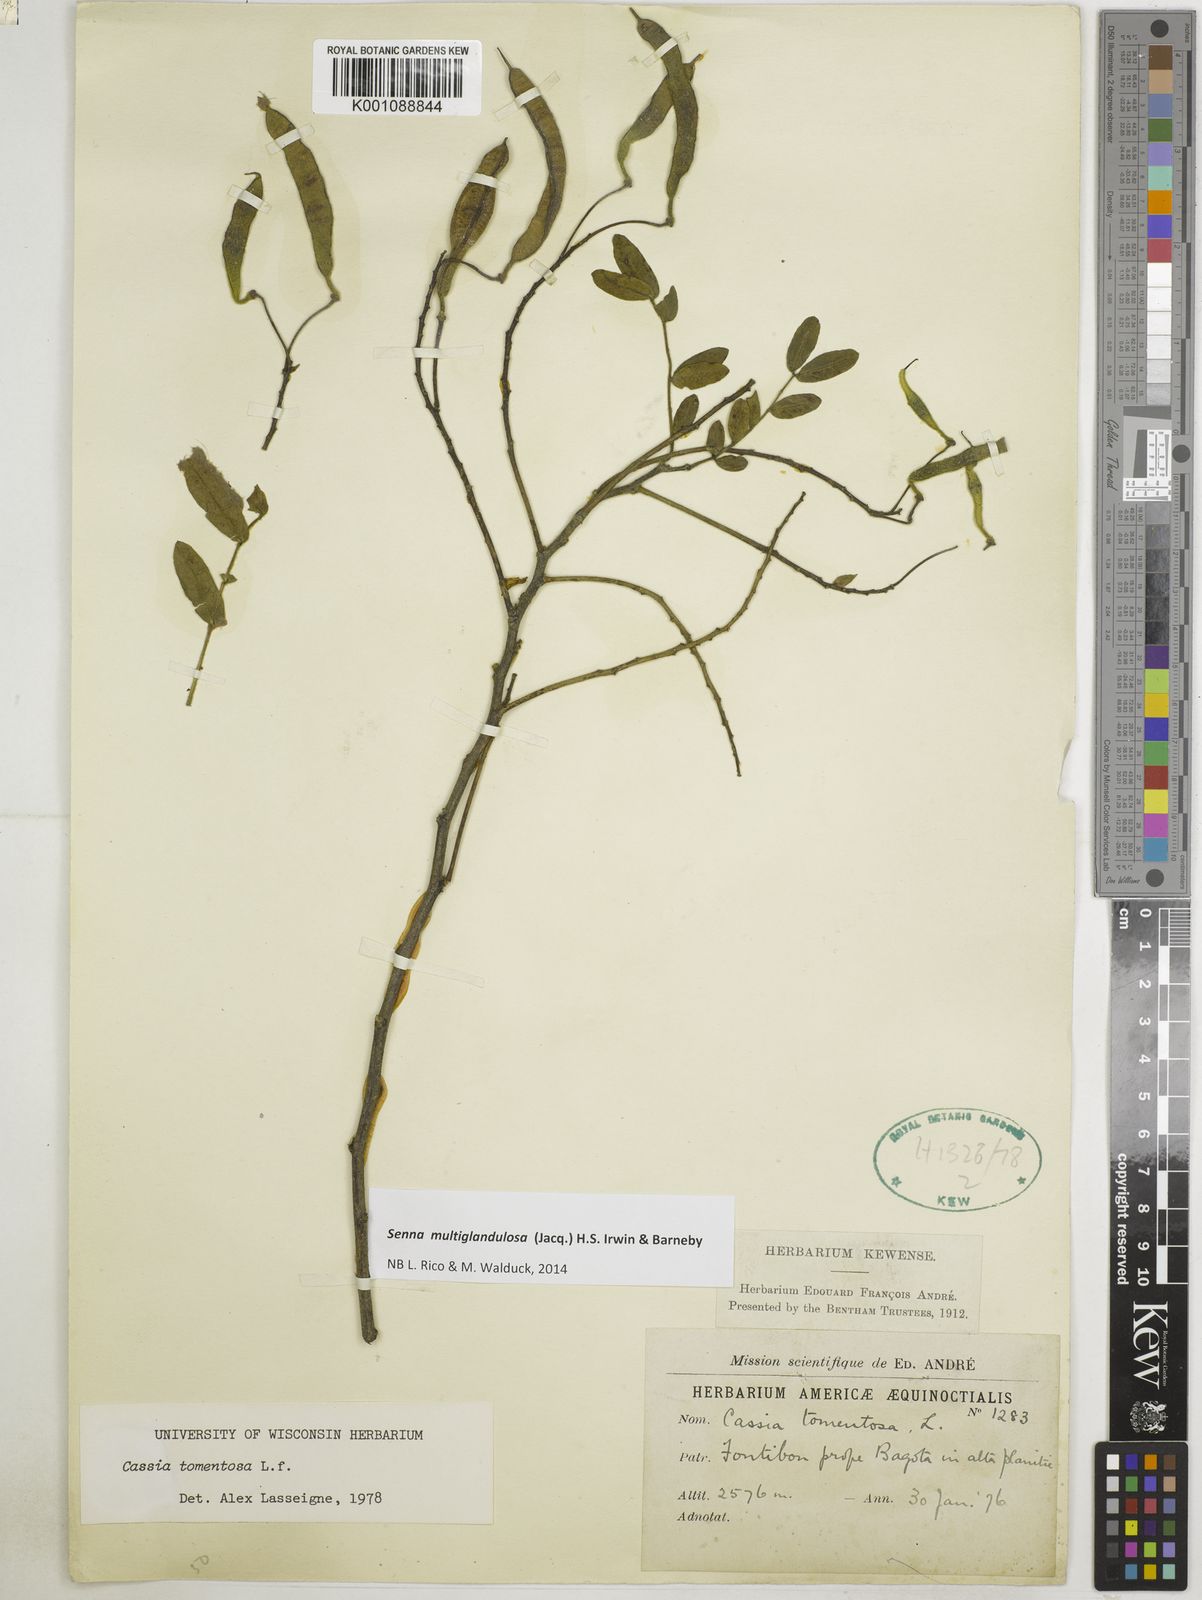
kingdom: Plantae
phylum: Tracheophyta
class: Magnoliopsida
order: Fabales
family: Fabaceae
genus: Senna
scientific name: Senna multiglandulosa
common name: Glandular senna
